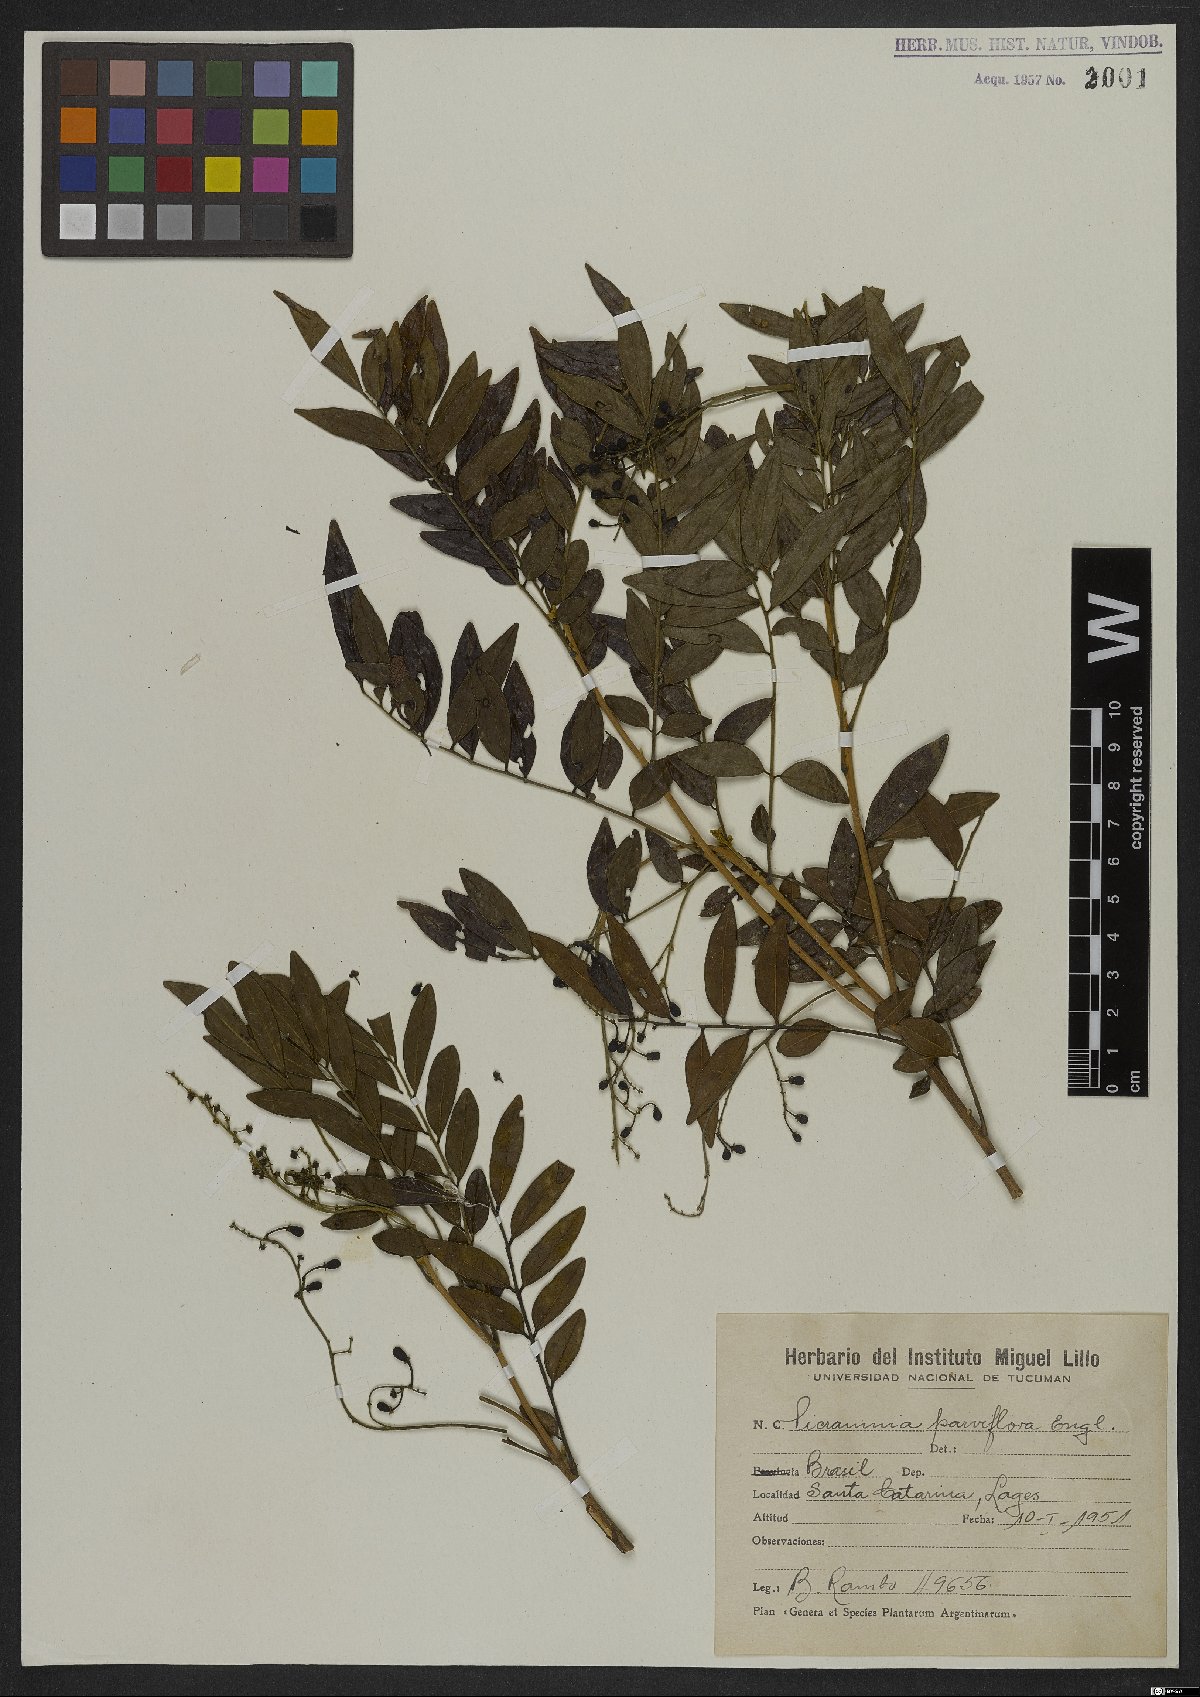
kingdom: Plantae
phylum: Tracheophyta
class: Magnoliopsida
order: Picramniales
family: Picramniaceae
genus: Picramnia
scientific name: Picramnia parvifolia
